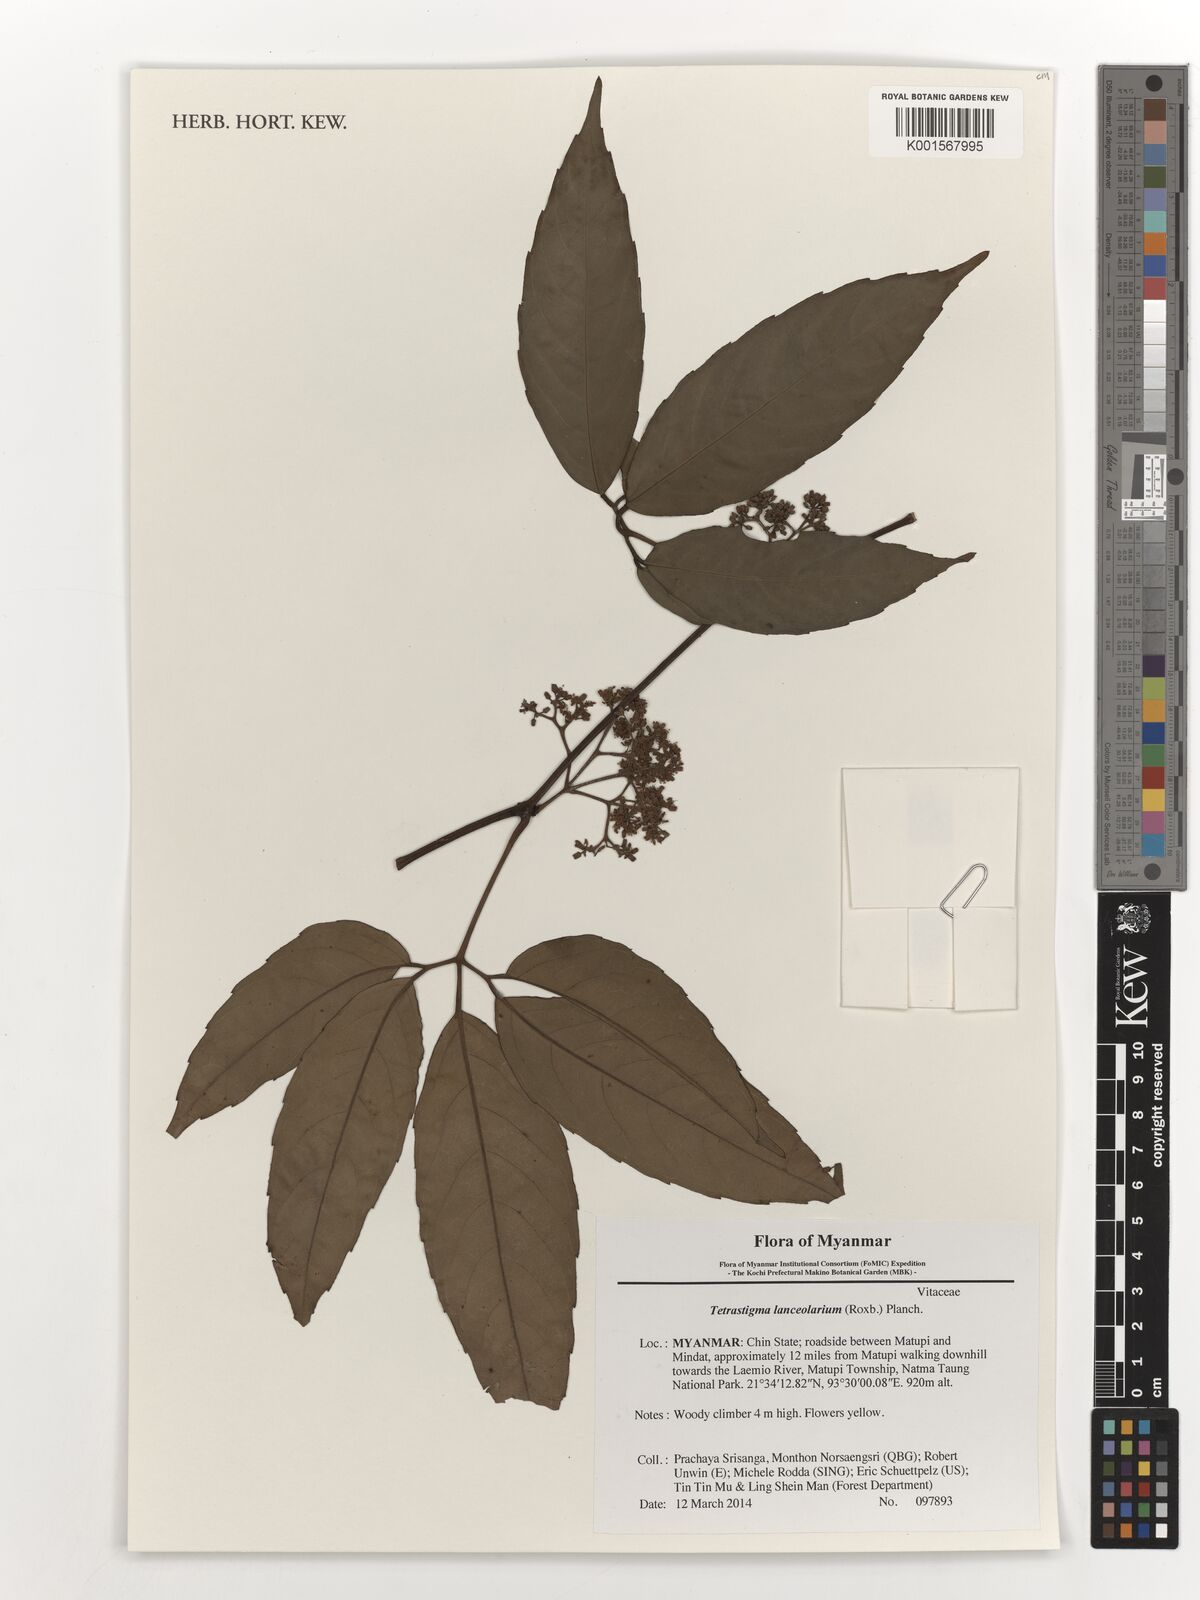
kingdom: Plantae
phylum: Tracheophyta
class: Magnoliopsida
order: Vitales
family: Vitaceae
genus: Tetrastigma
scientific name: Tetrastigma leucostaphylum
